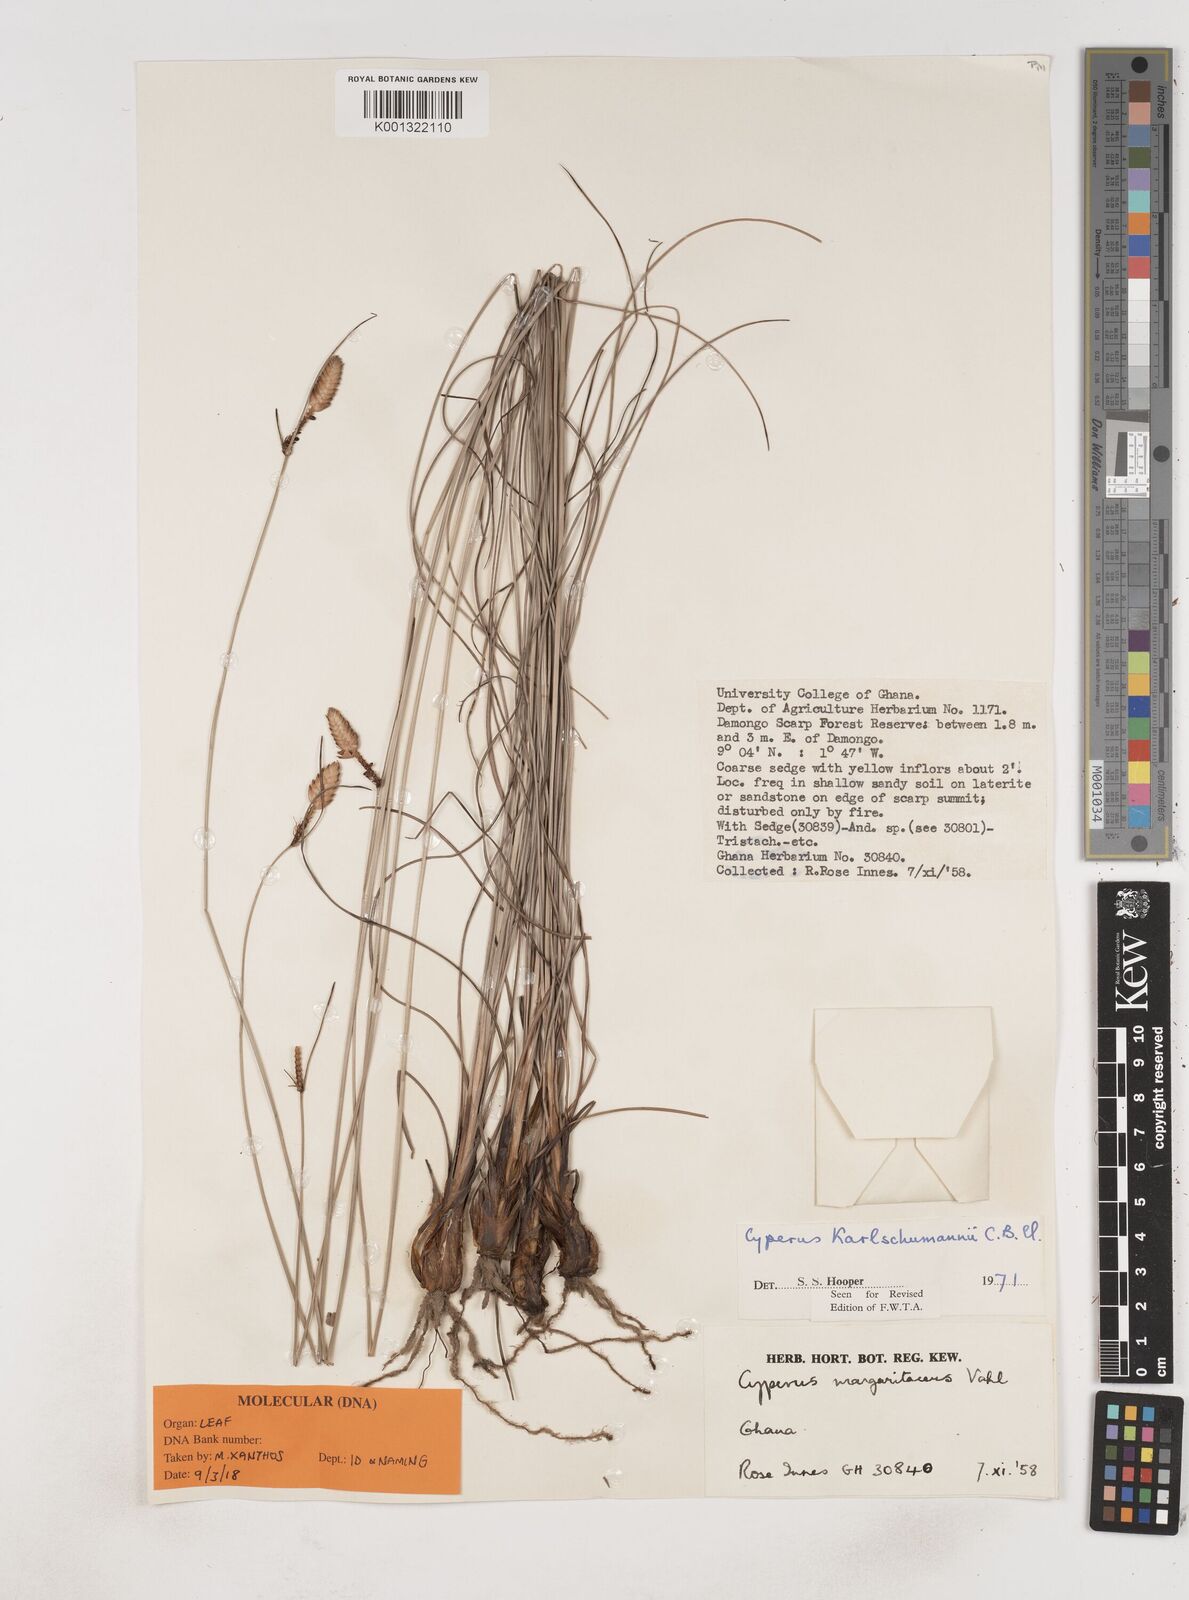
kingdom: Plantae
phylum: Tracheophyta
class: Liliopsida
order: Poales
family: Cyperaceae
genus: Cyperus
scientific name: Cyperus karlschumannii
